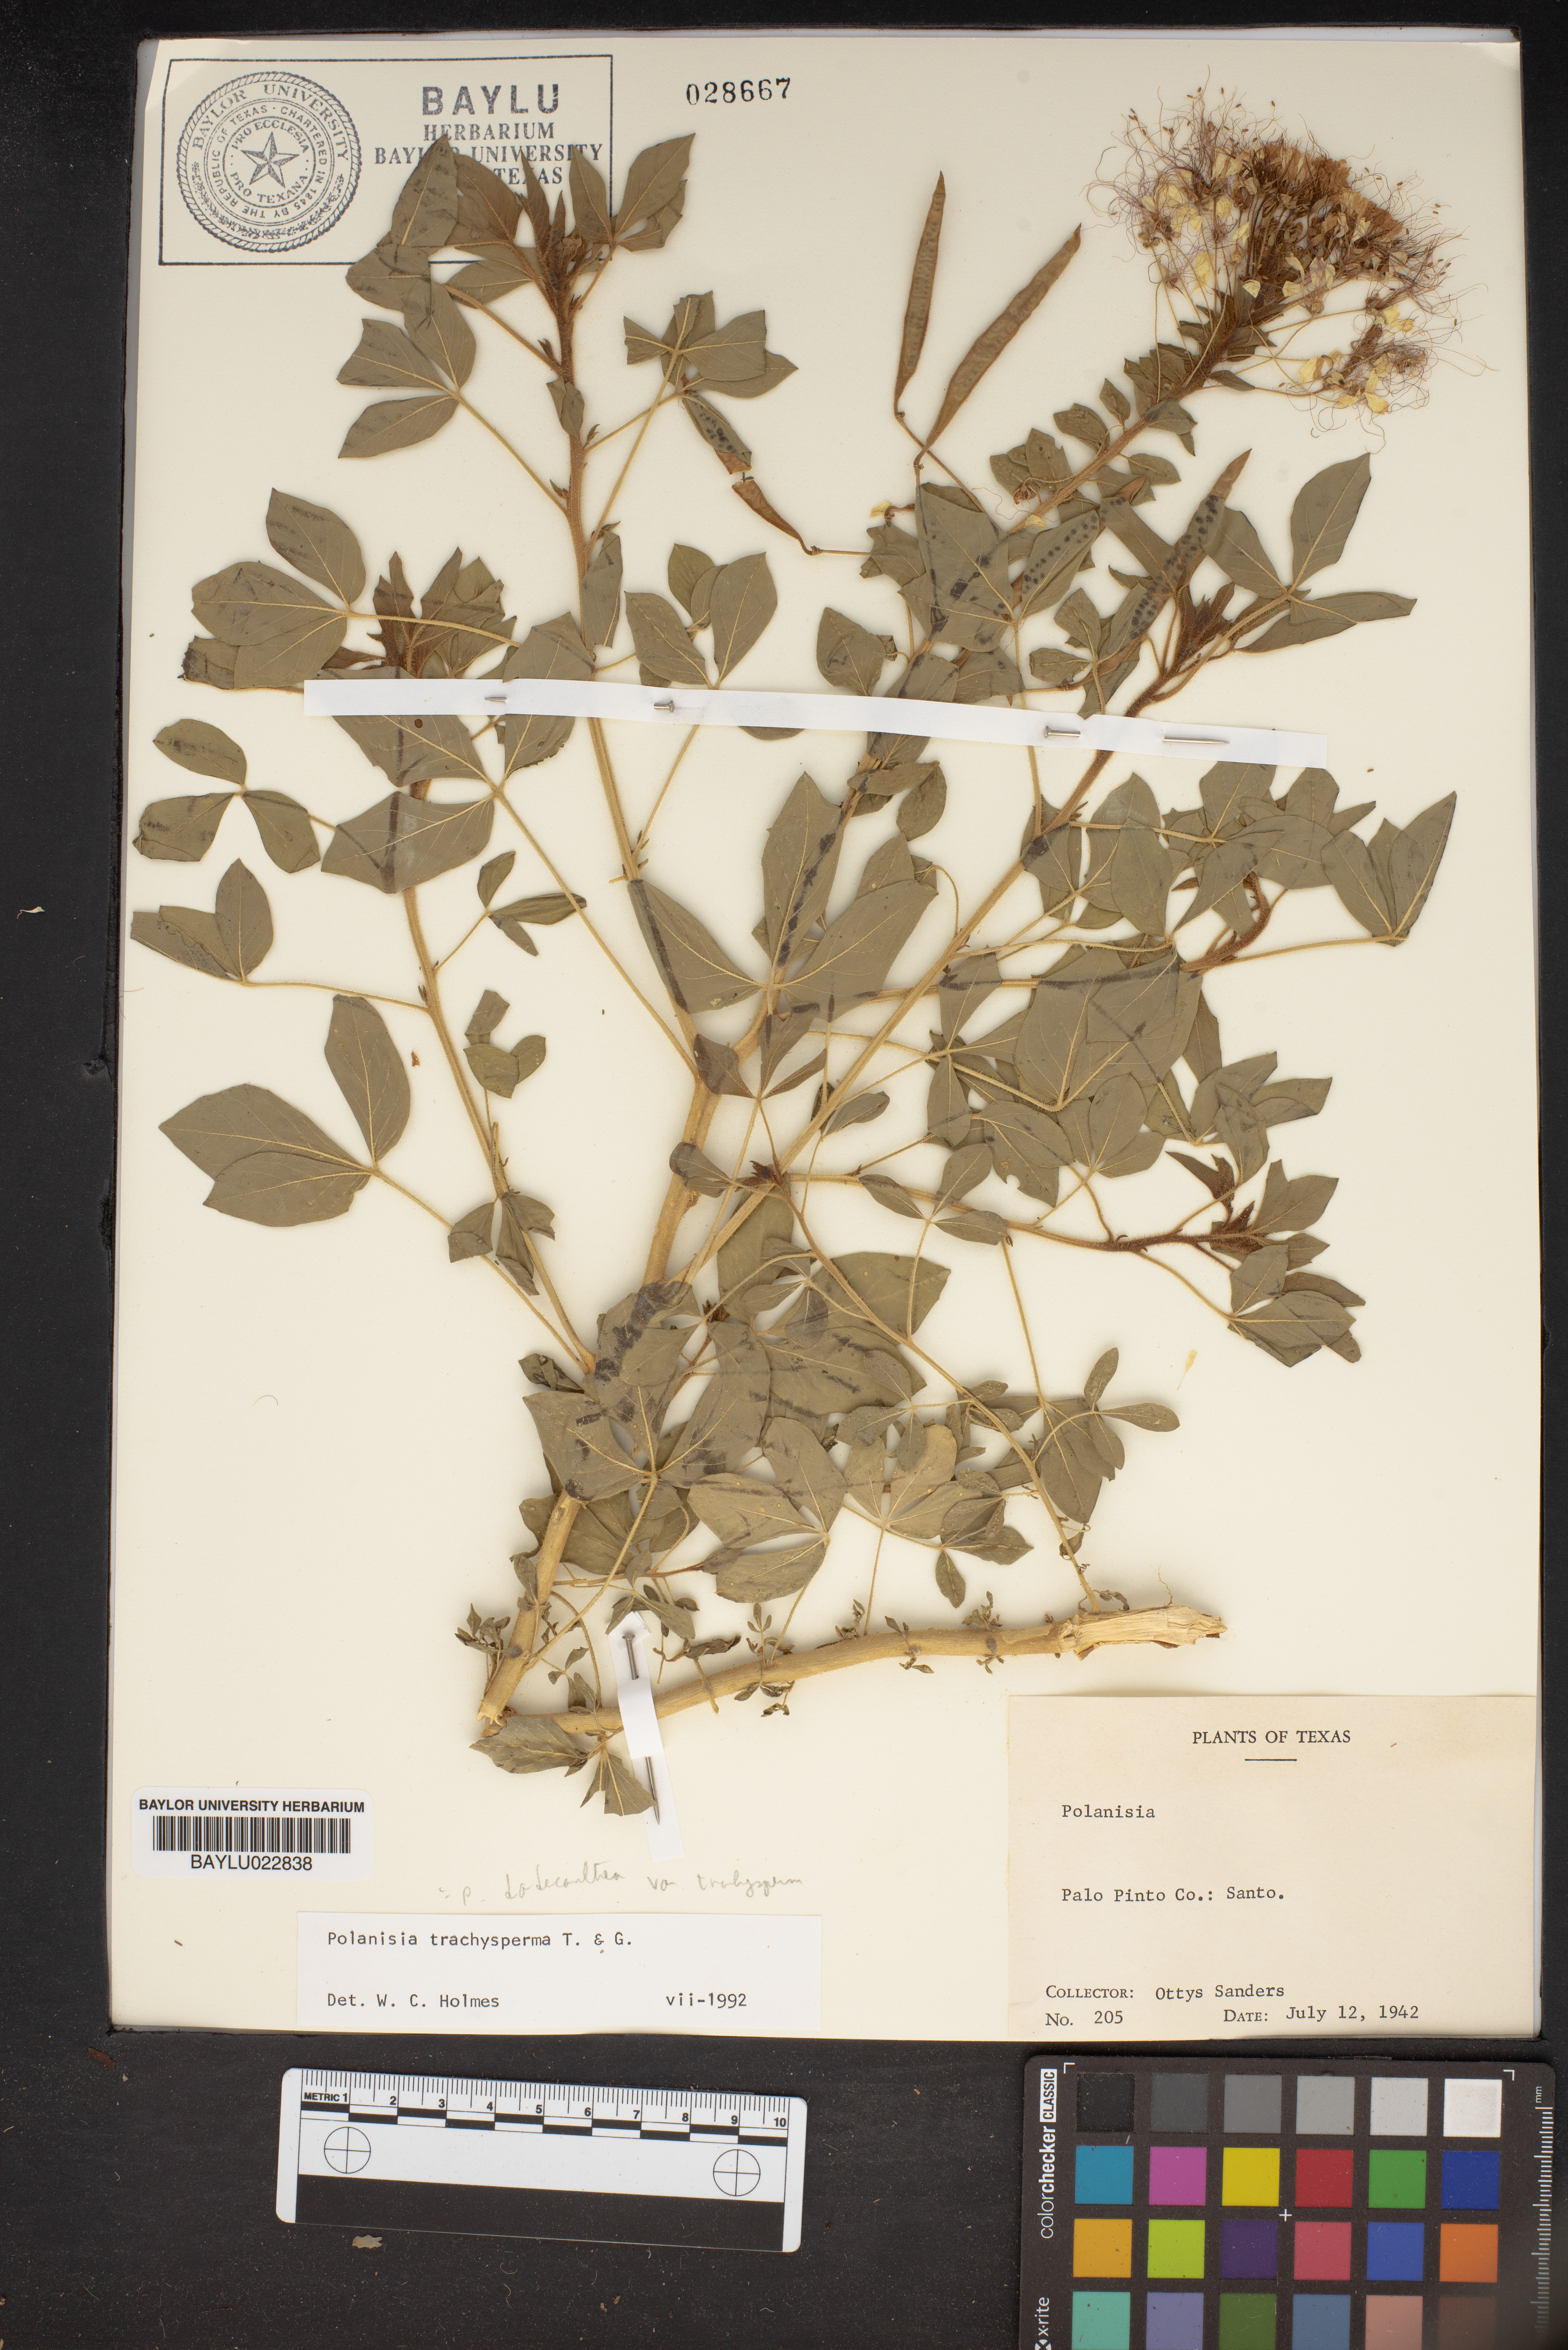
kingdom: Plantae
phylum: Tracheophyta
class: Magnoliopsida
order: Brassicales
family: Cleomaceae
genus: Polanisia
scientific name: Polanisia
